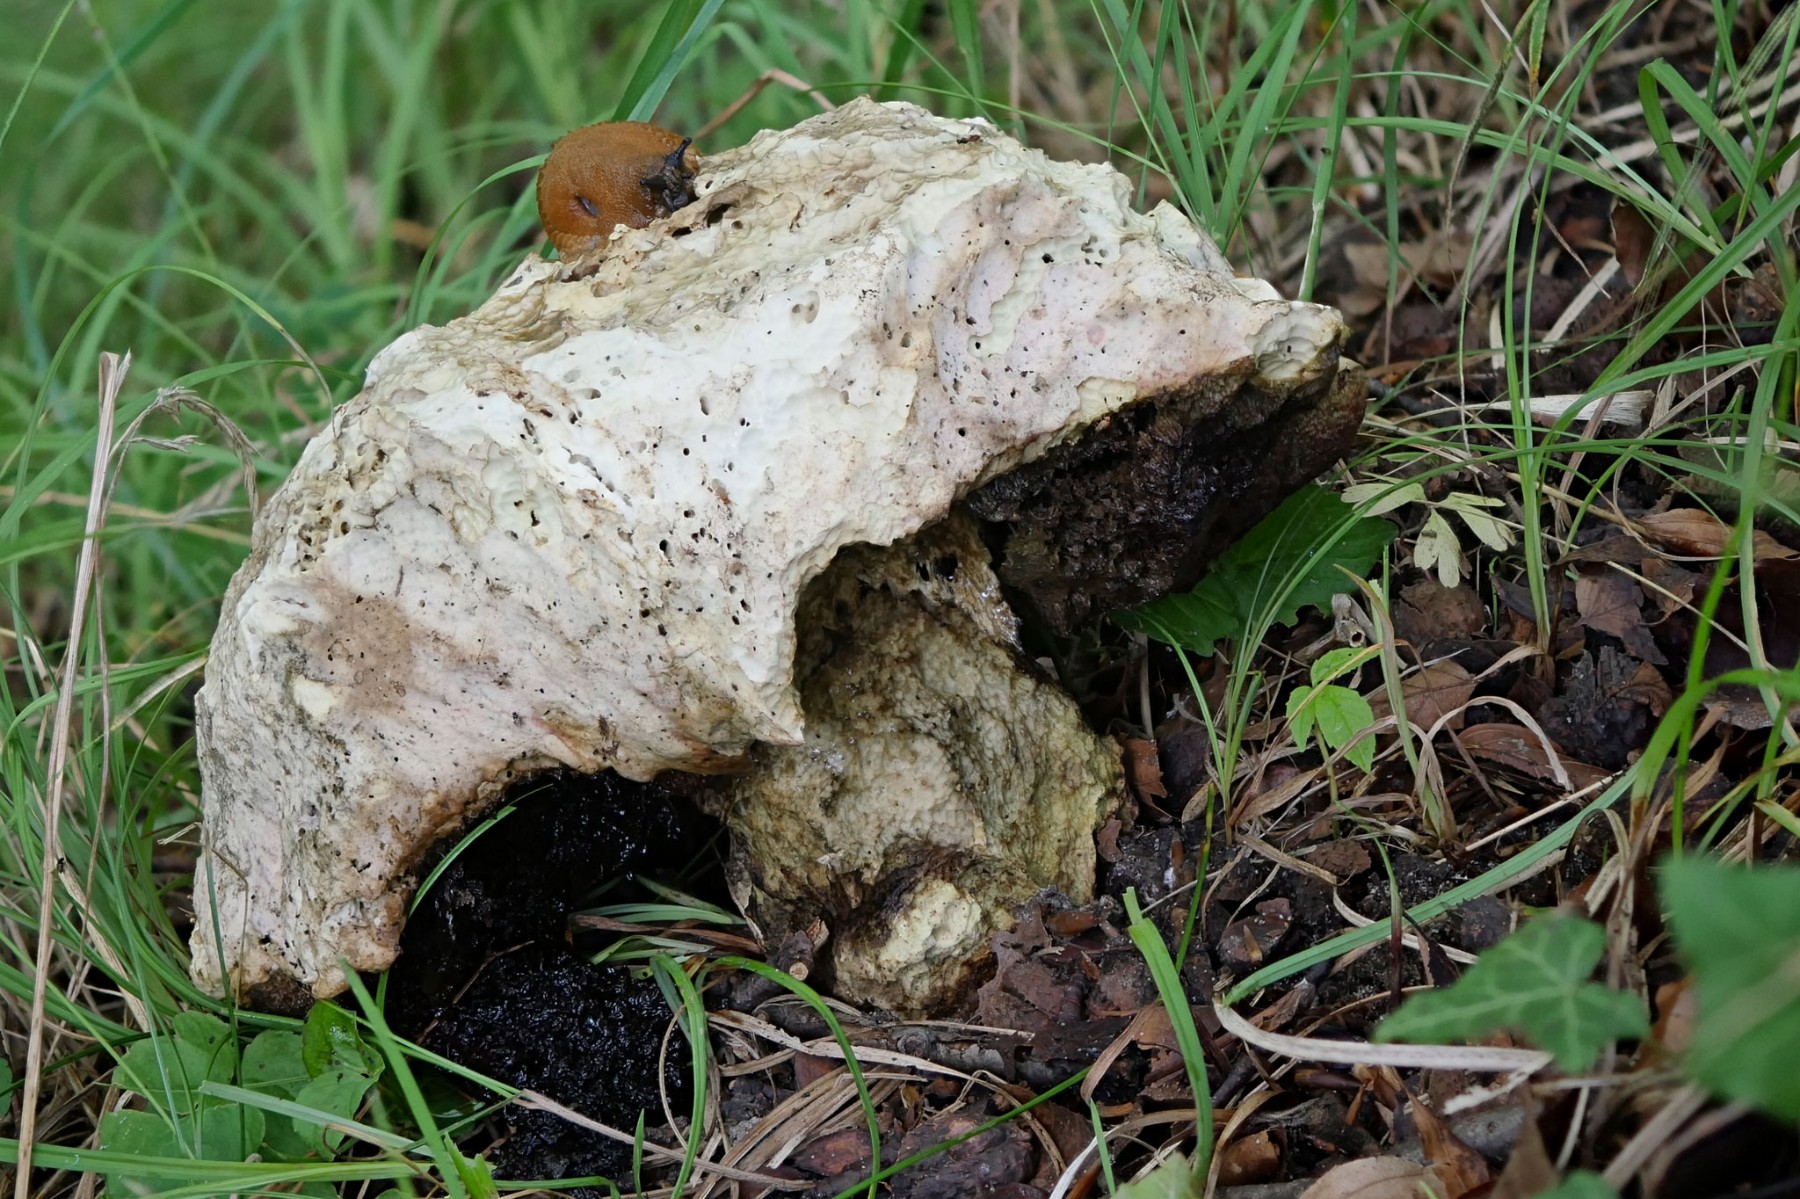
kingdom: Fungi
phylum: Basidiomycota
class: Agaricomycetes
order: Boletales
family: Boletaceae
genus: Rubroboletus
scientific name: Rubroboletus satanas
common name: Satans rørhat
